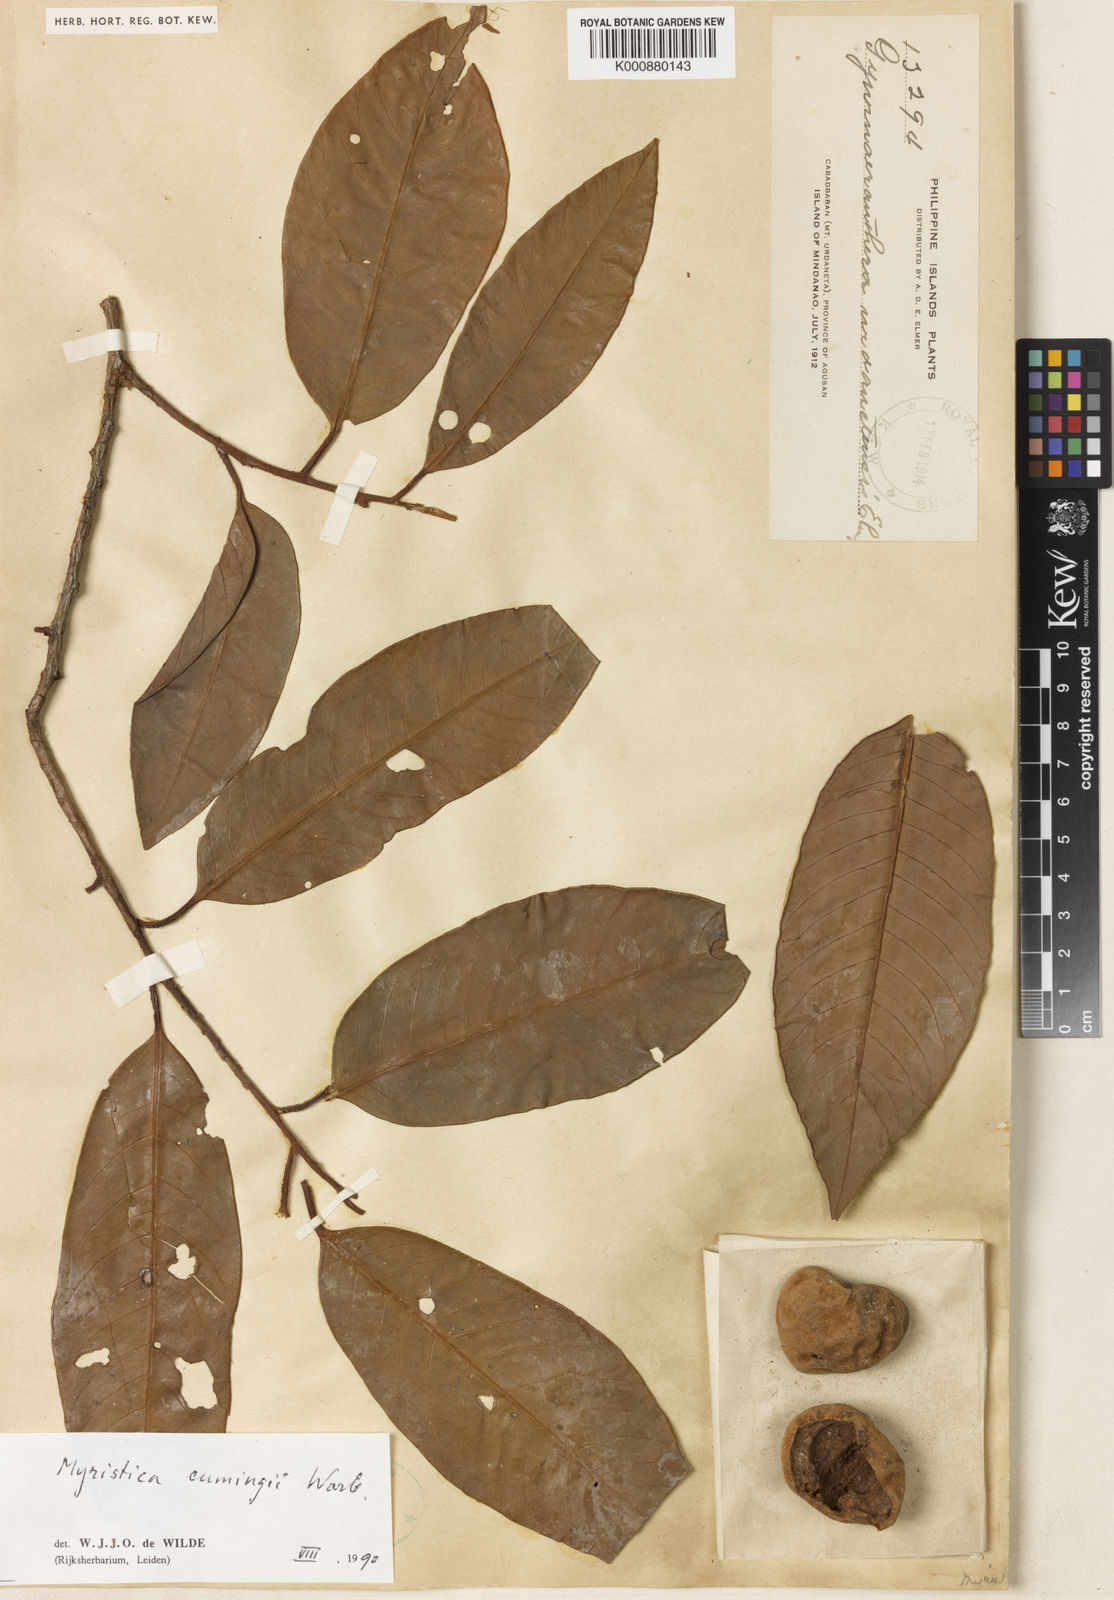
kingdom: Plantae
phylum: Tracheophyta
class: Magnoliopsida
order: Magnoliales
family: Myristicaceae
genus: Myristica
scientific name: Myristica cumingii
